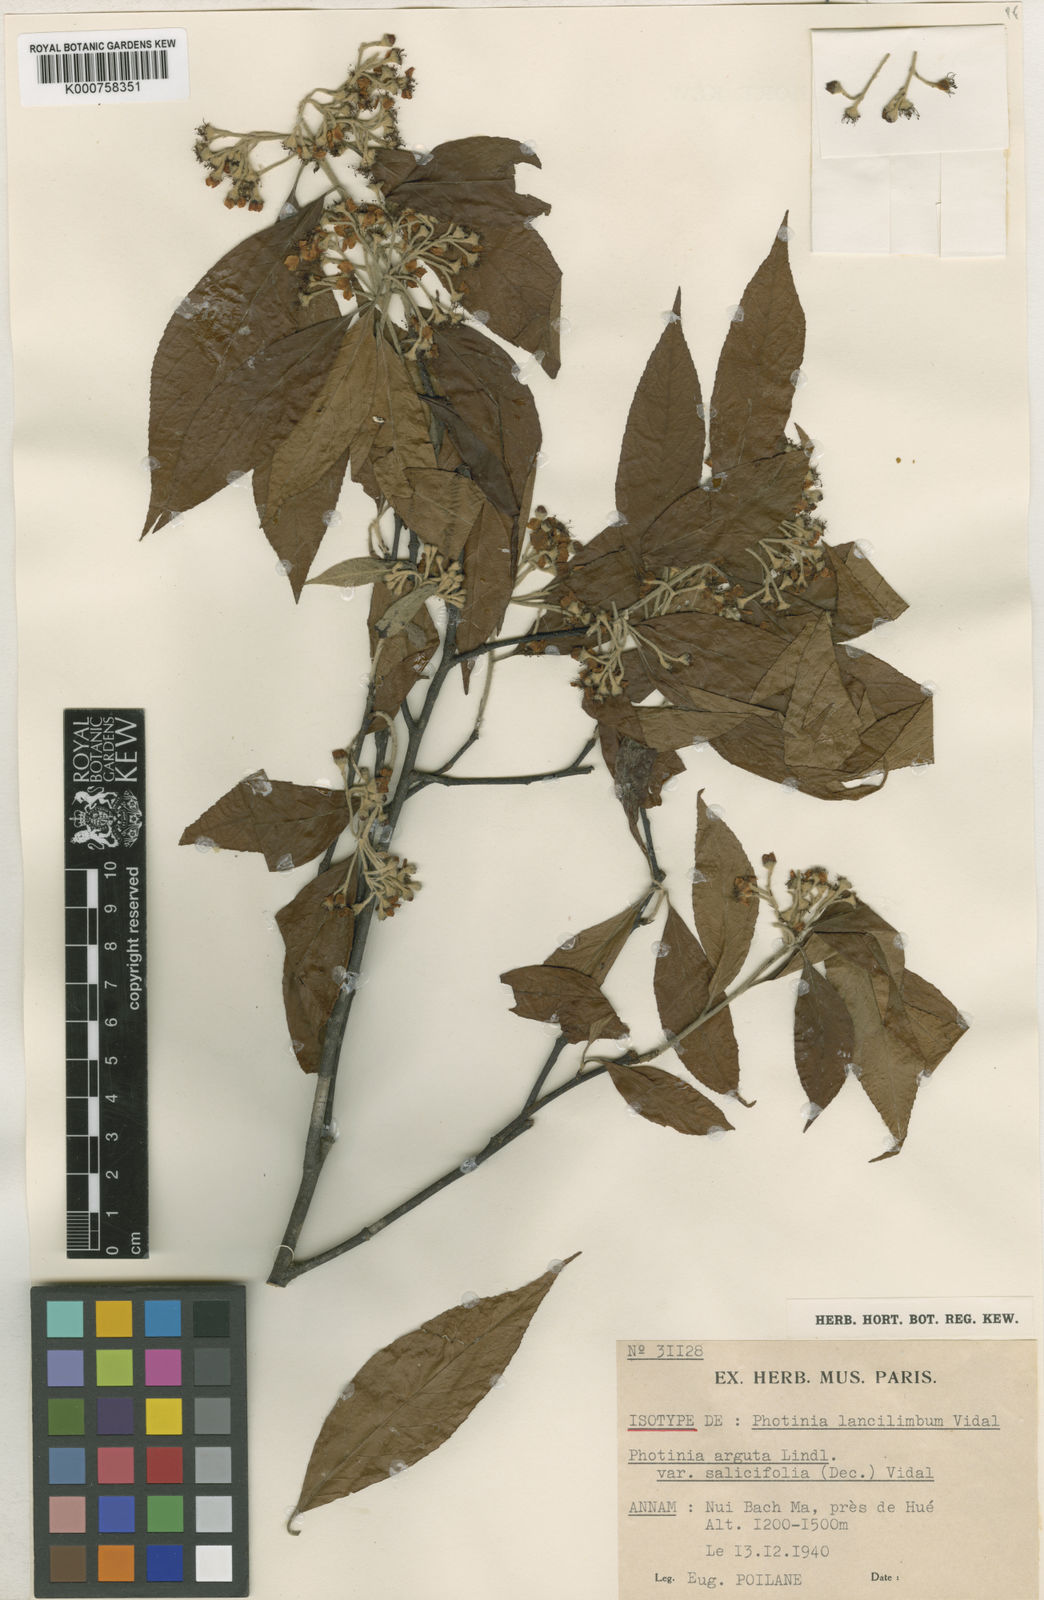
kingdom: Plantae
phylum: Tracheophyta
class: Magnoliopsida
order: Rosales
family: Rosaceae
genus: Photinia
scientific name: Photinia
